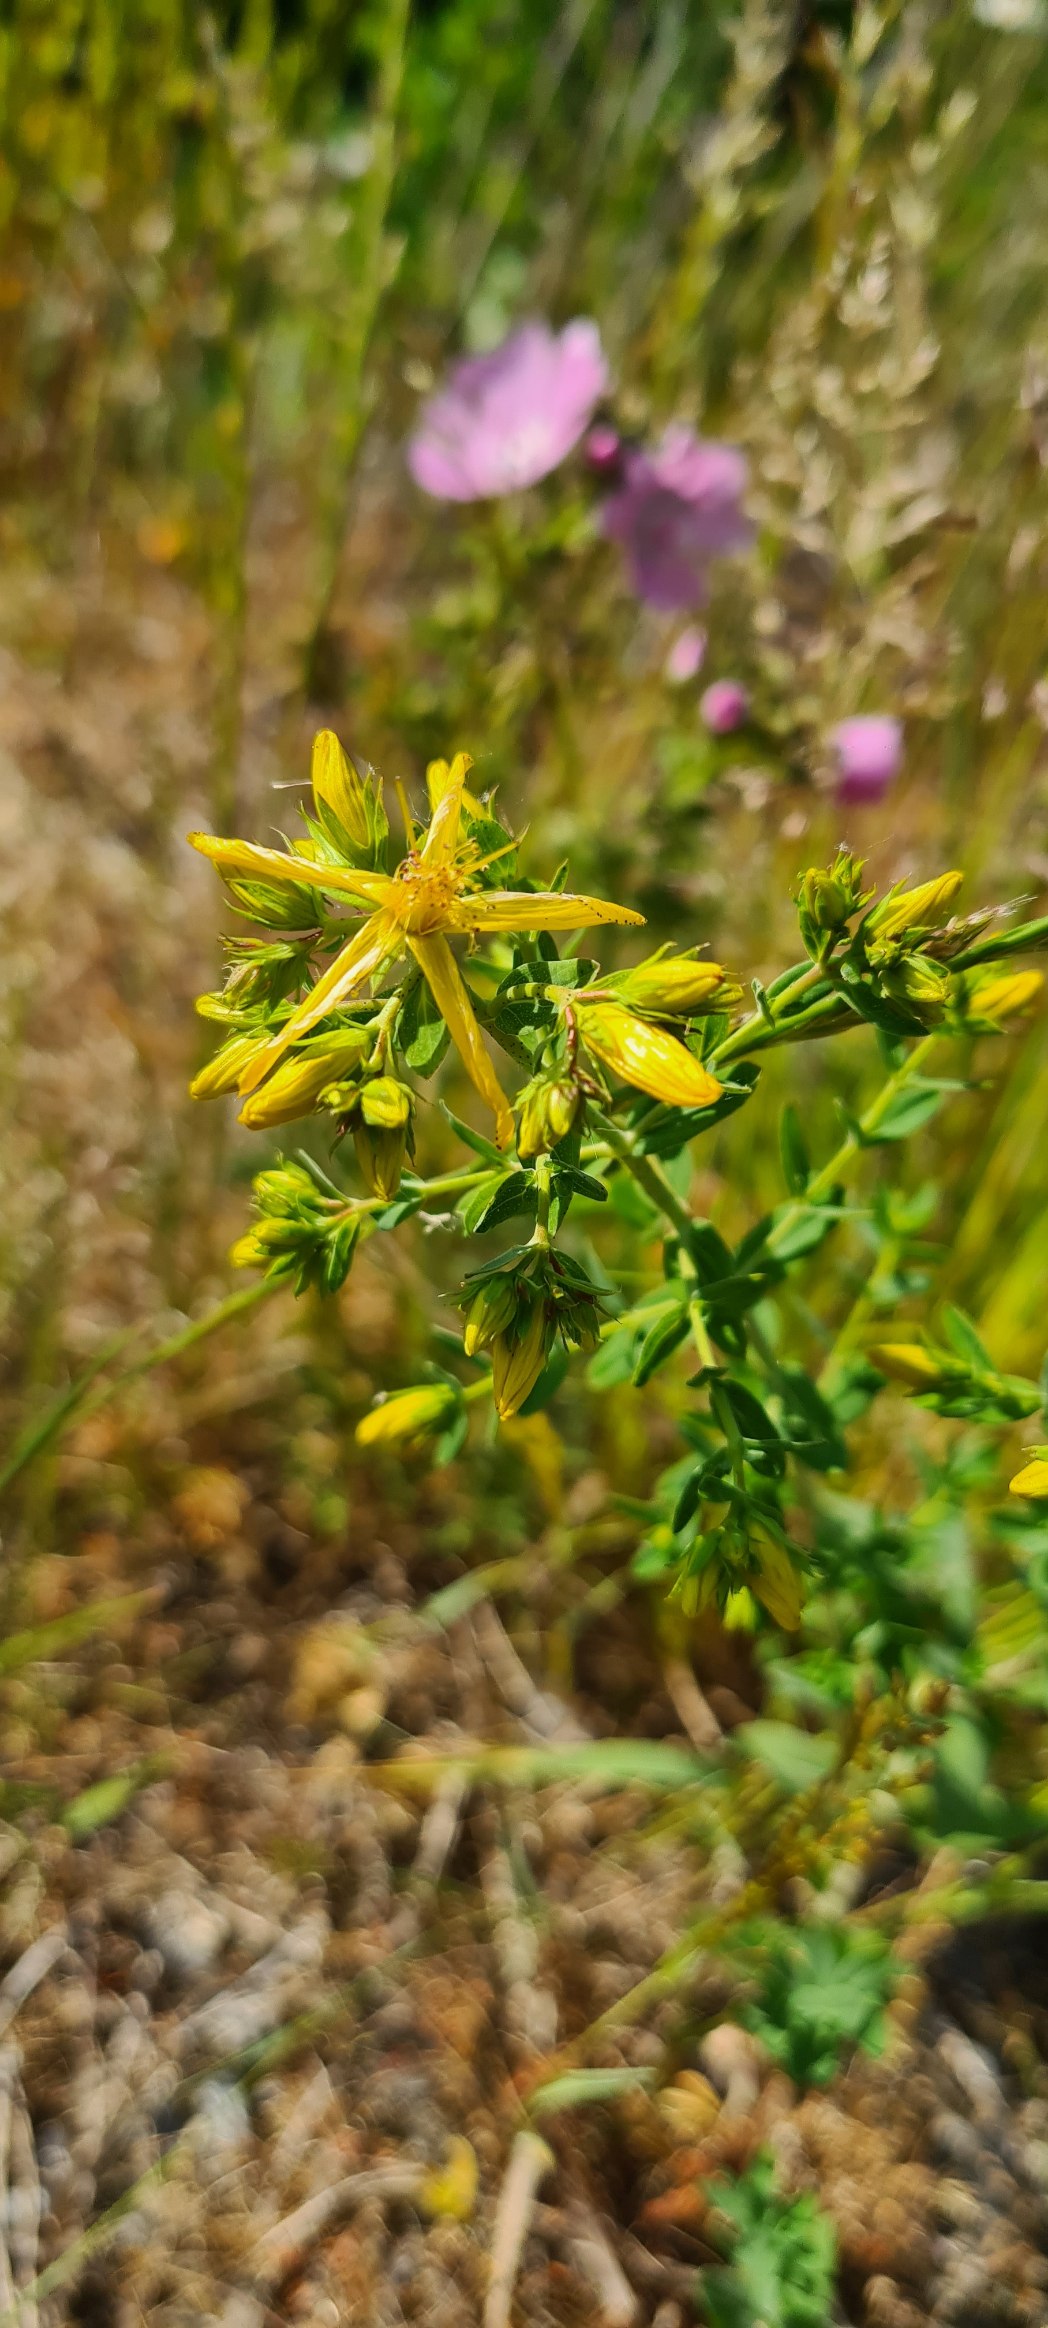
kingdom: Plantae
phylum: Tracheophyta
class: Magnoliopsida
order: Malpighiales
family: Hypericaceae
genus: Hypericum
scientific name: Hypericum perforatum
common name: Prikbladet perikon
